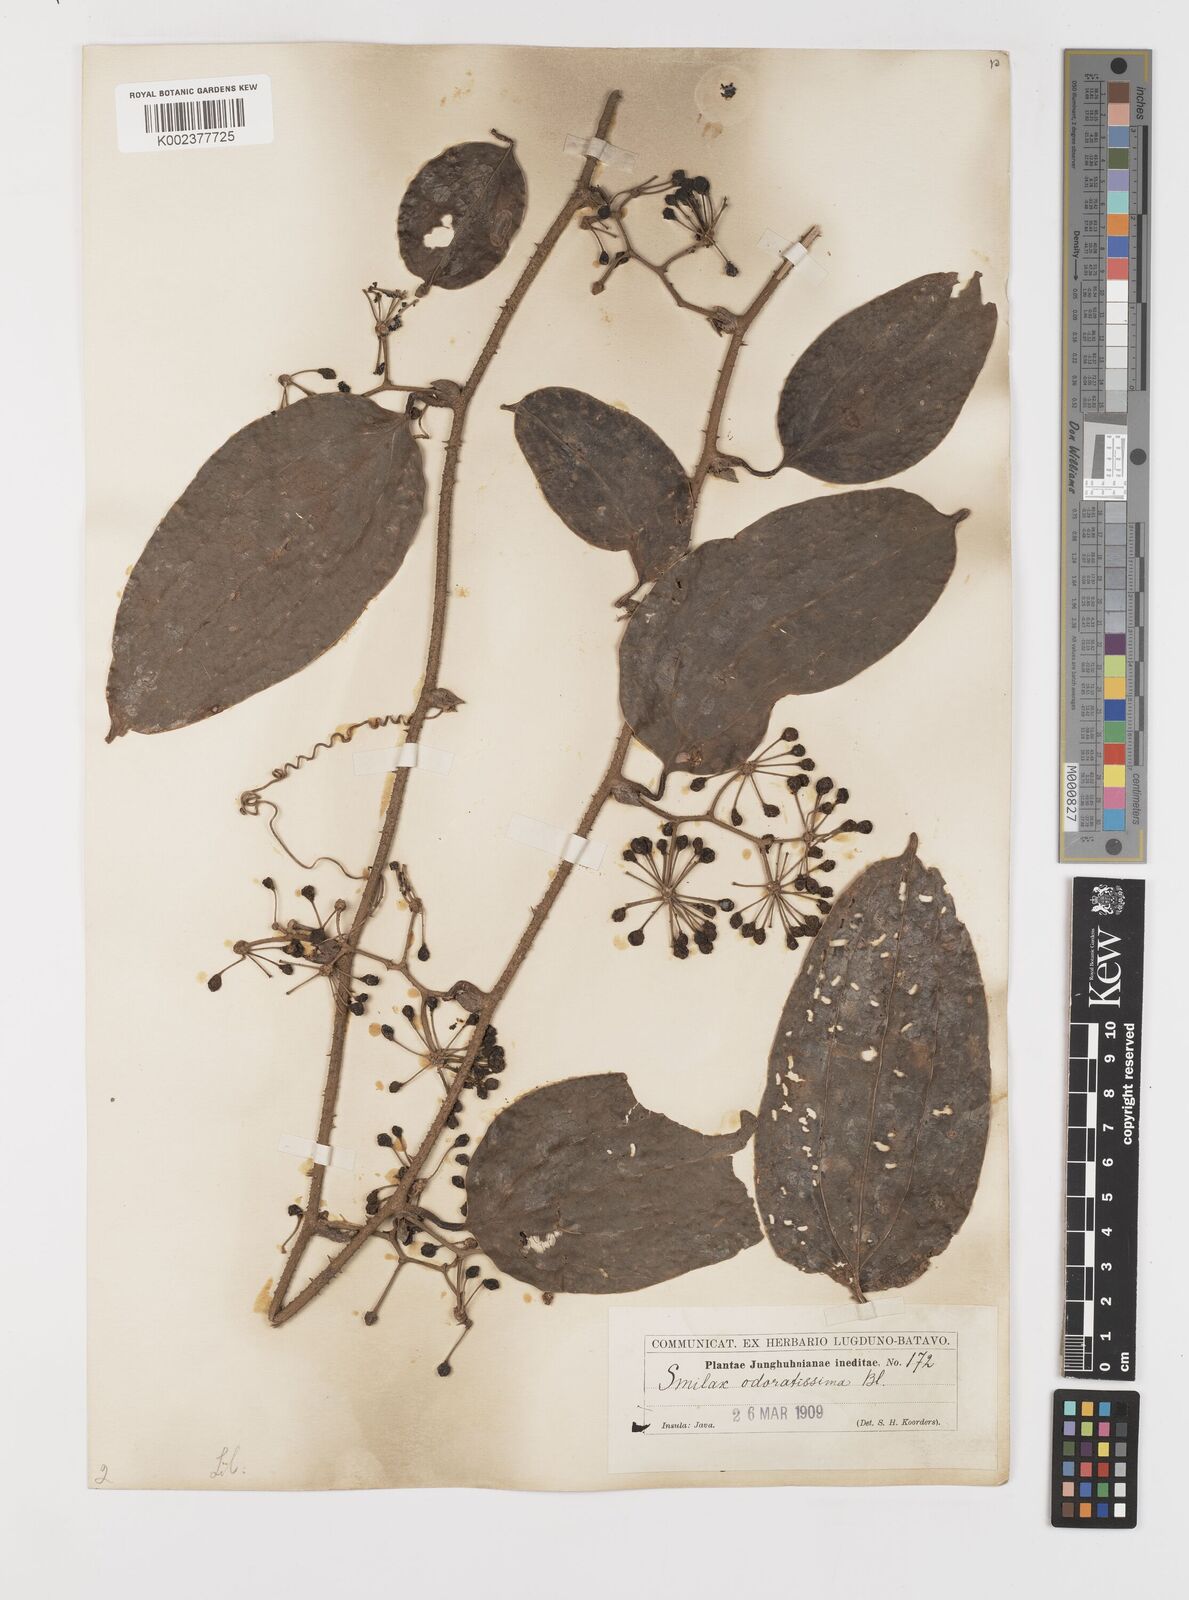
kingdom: Plantae
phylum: Tracheophyta
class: Liliopsida
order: Liliales
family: Smilacaceae
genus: Smilax
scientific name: Smilax odoratissima
